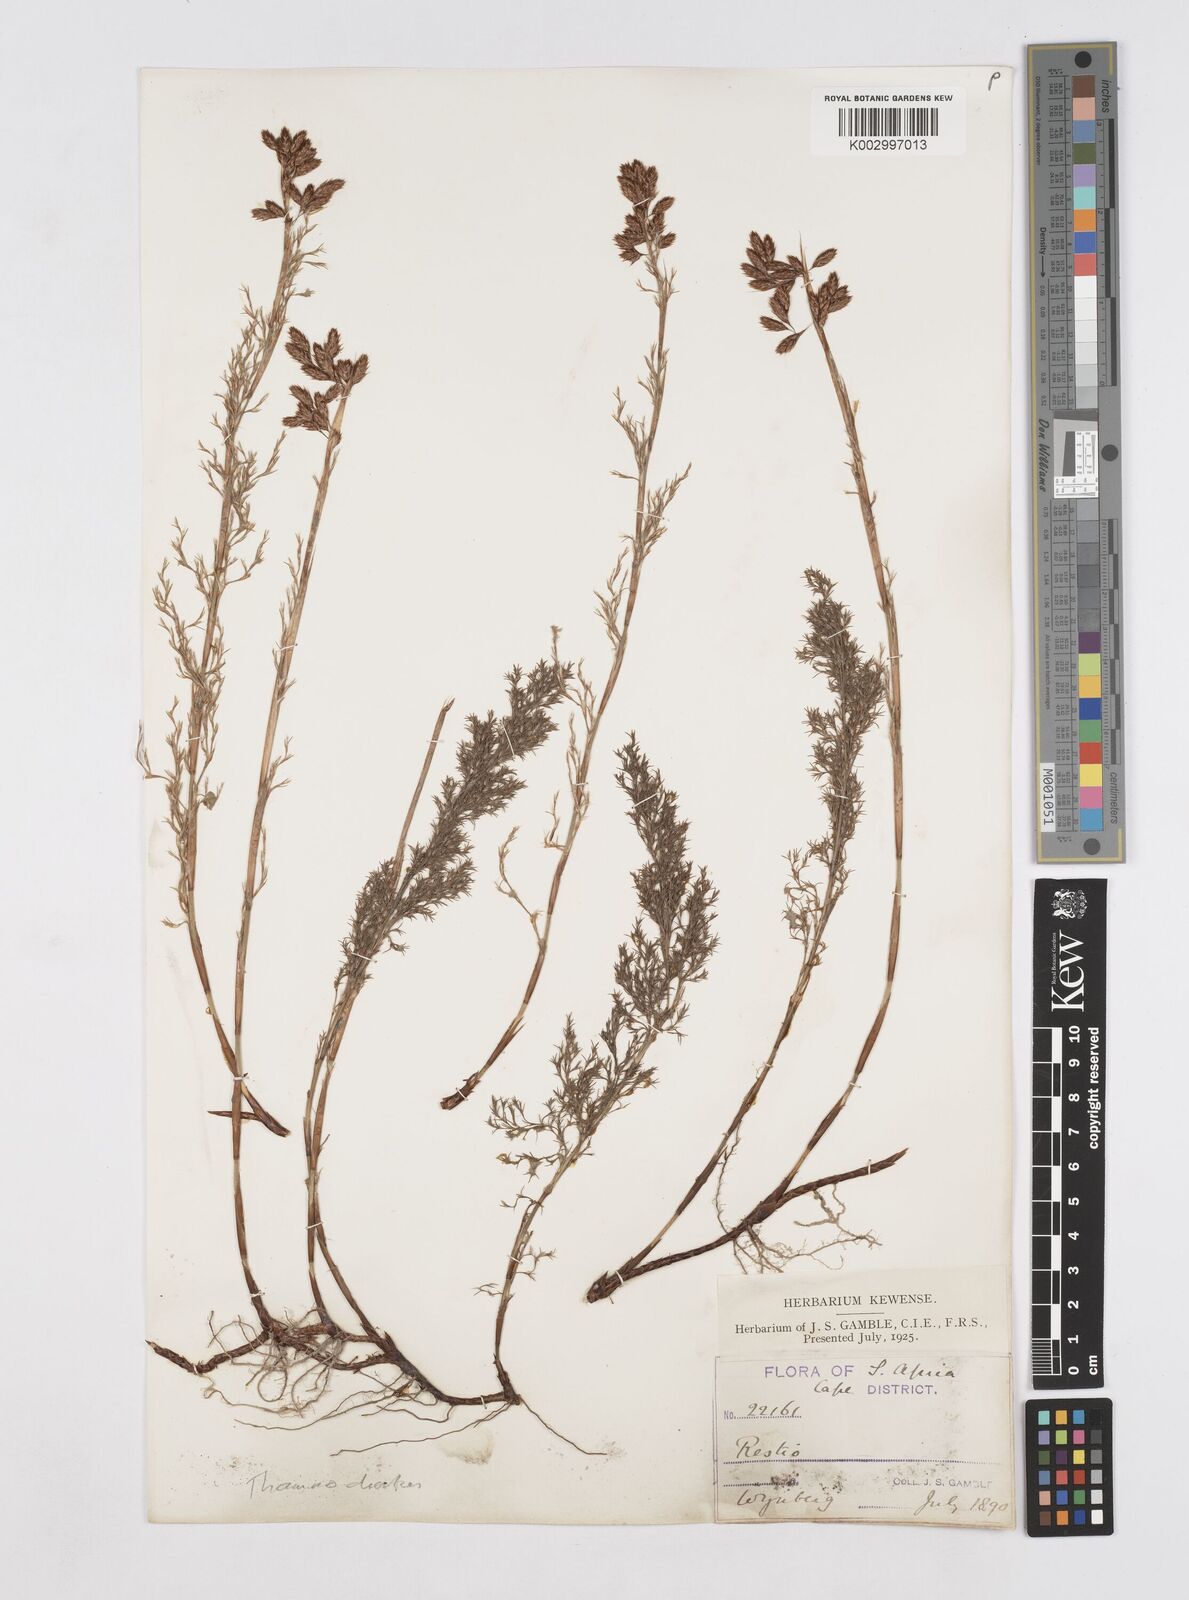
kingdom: Plantae
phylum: Tracheophyta
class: Liliopsida
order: Poales
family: Restionaceae
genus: Thamnochortus
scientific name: Thamnochortus fruticosus
